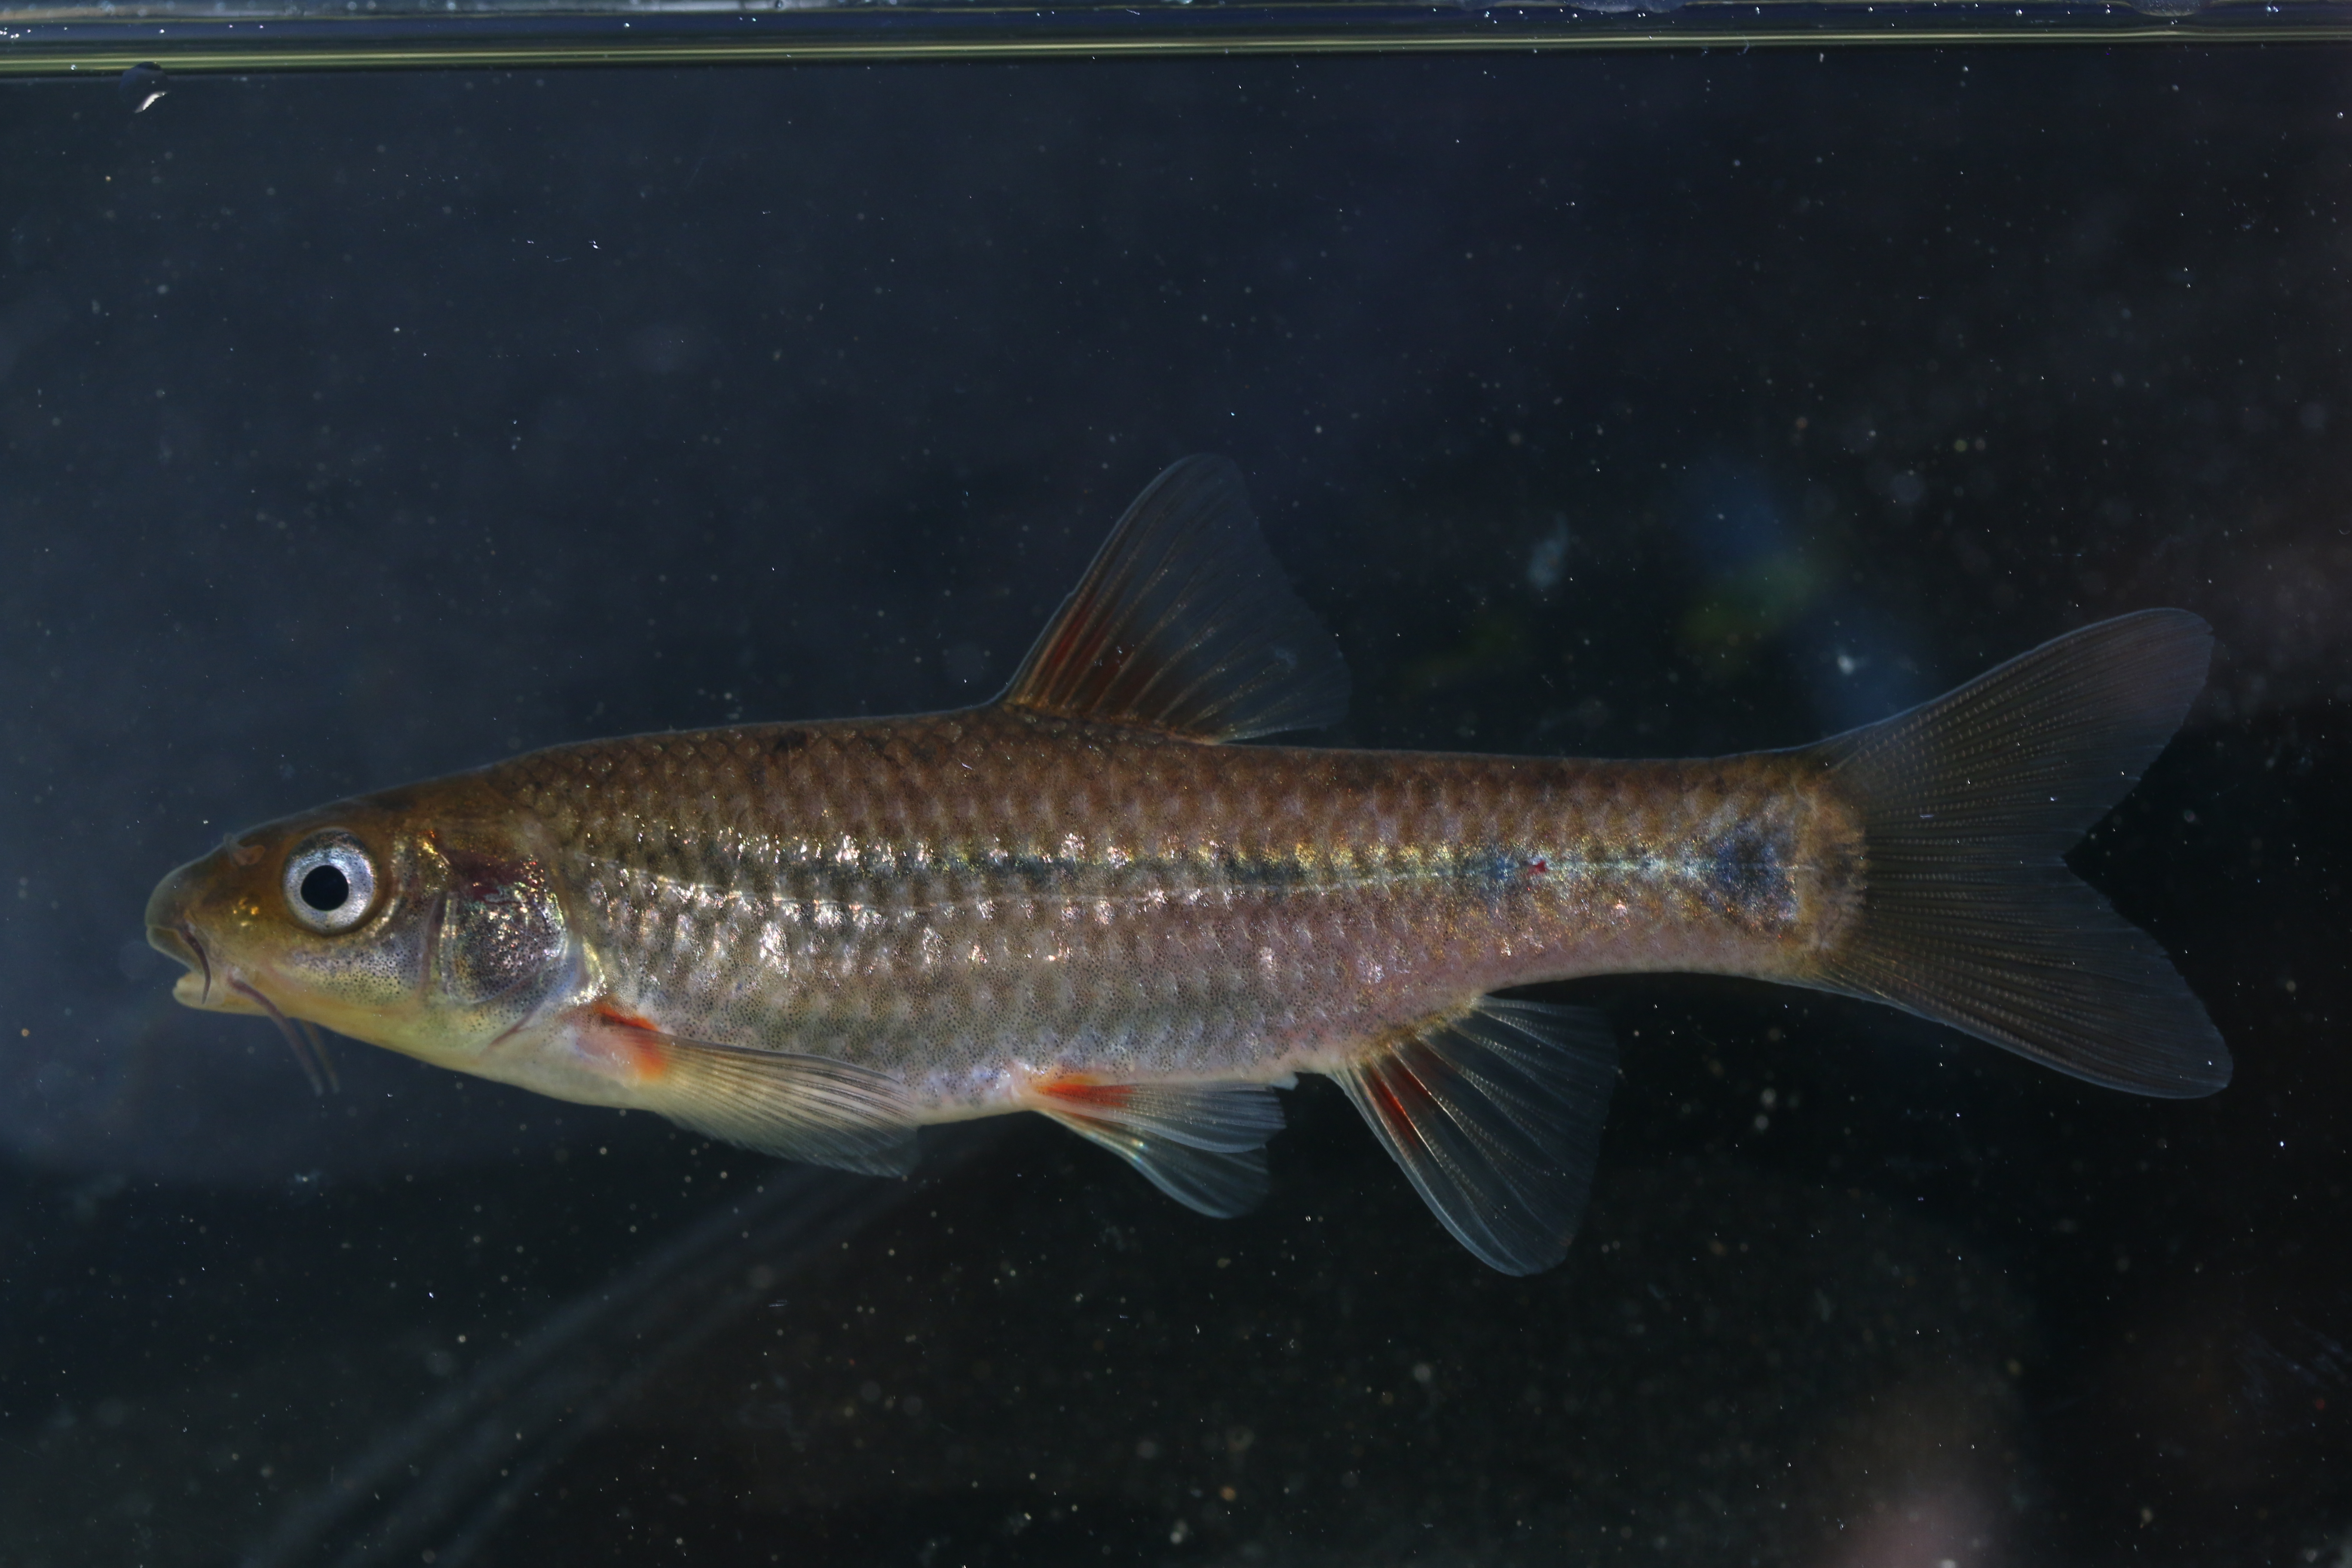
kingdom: Animalia
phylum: Chordata
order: Cypriniformes
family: Cyprinidae
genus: Pseudobarbus
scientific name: Pseudobarbus burchelli
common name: Burchell's redfin
